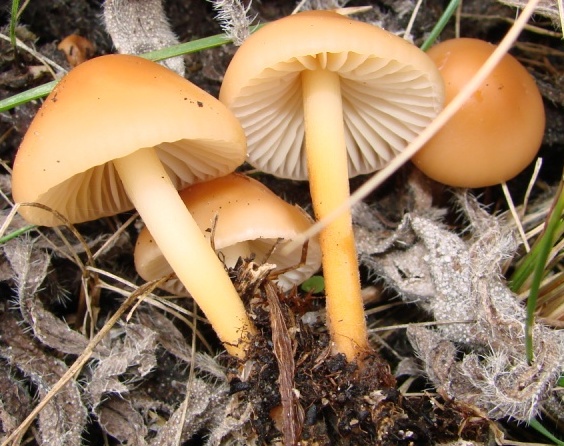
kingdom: Fungi
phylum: Basidiomycota
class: Agaricomycetes
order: Agaricales
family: Marasmiaceae
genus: Marasmius
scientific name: Marasmius oreades
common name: elledans-bruskhat
